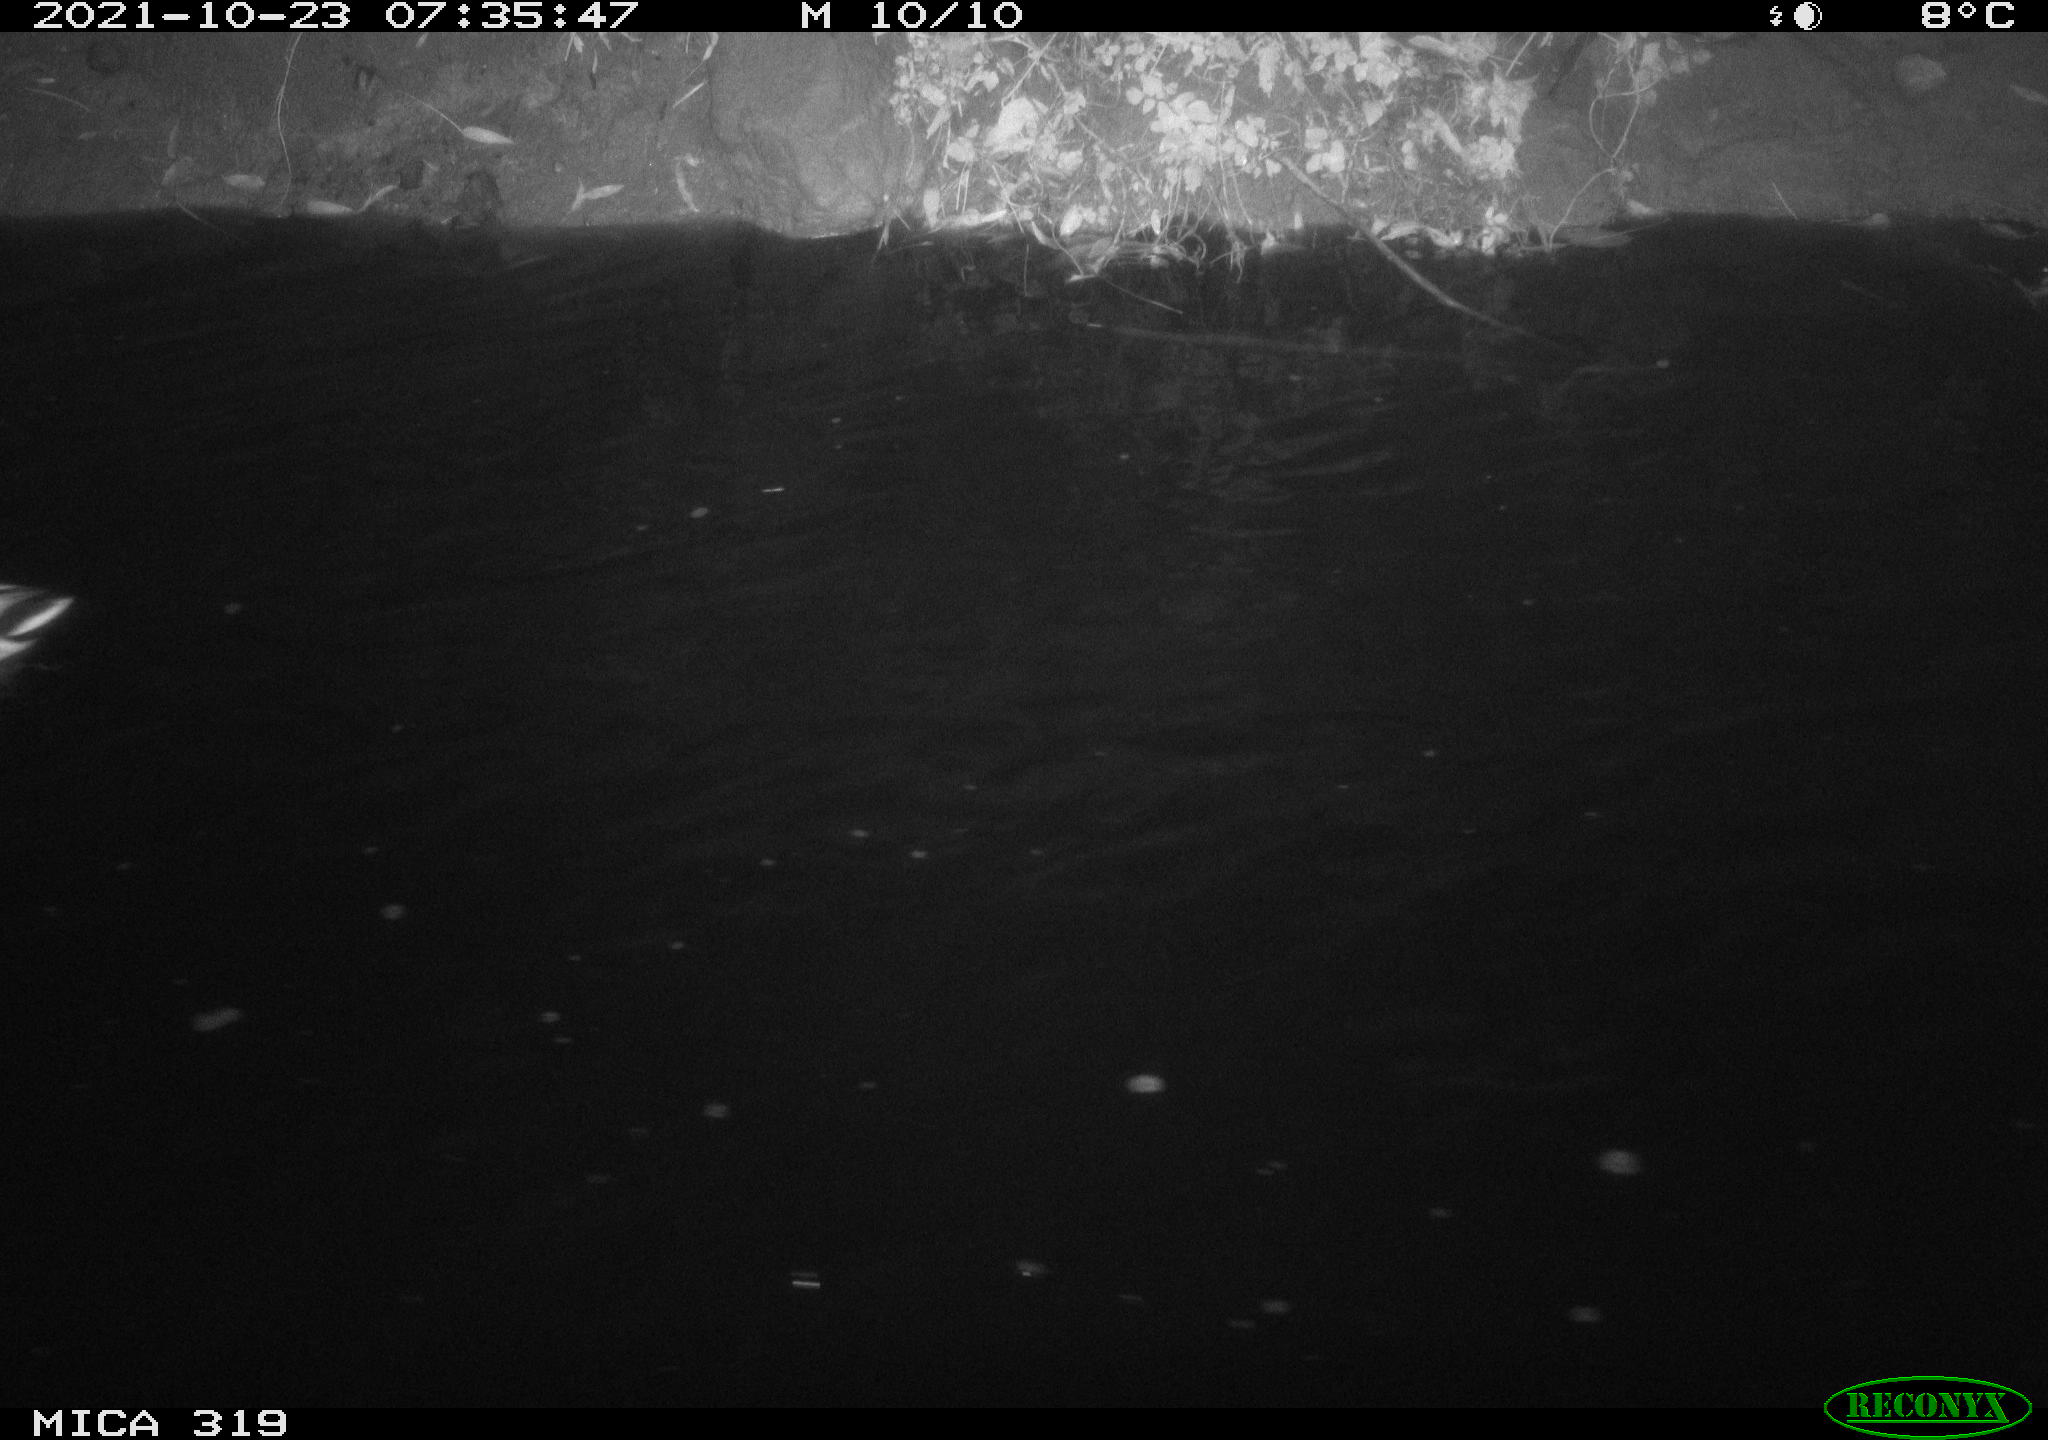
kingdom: Animalia
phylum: Chordata
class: Aves
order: Anseriformes
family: Anatidae
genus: Anas
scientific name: Anas platyrhynchos
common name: Mallard
